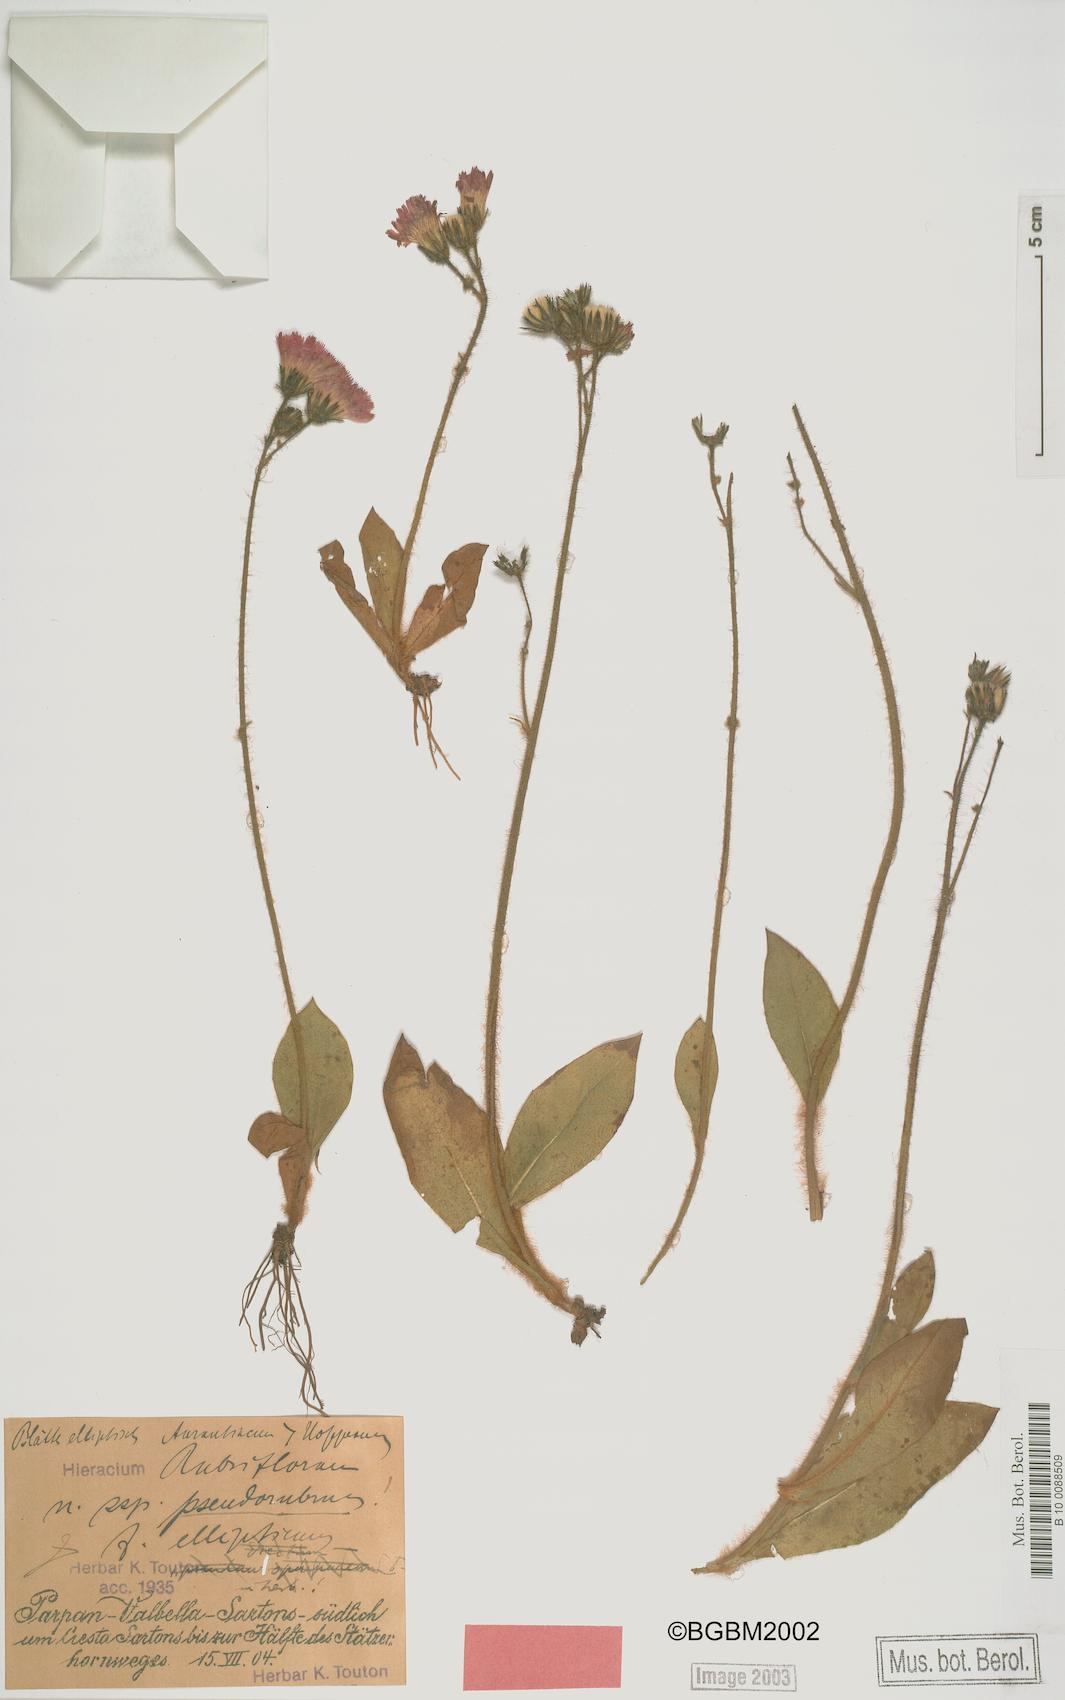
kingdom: Plantae
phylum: Tracheophyta
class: Magnoliopsida
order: Asterales
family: Asteraceae
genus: Pilosella
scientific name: Pilosella rubriflora
